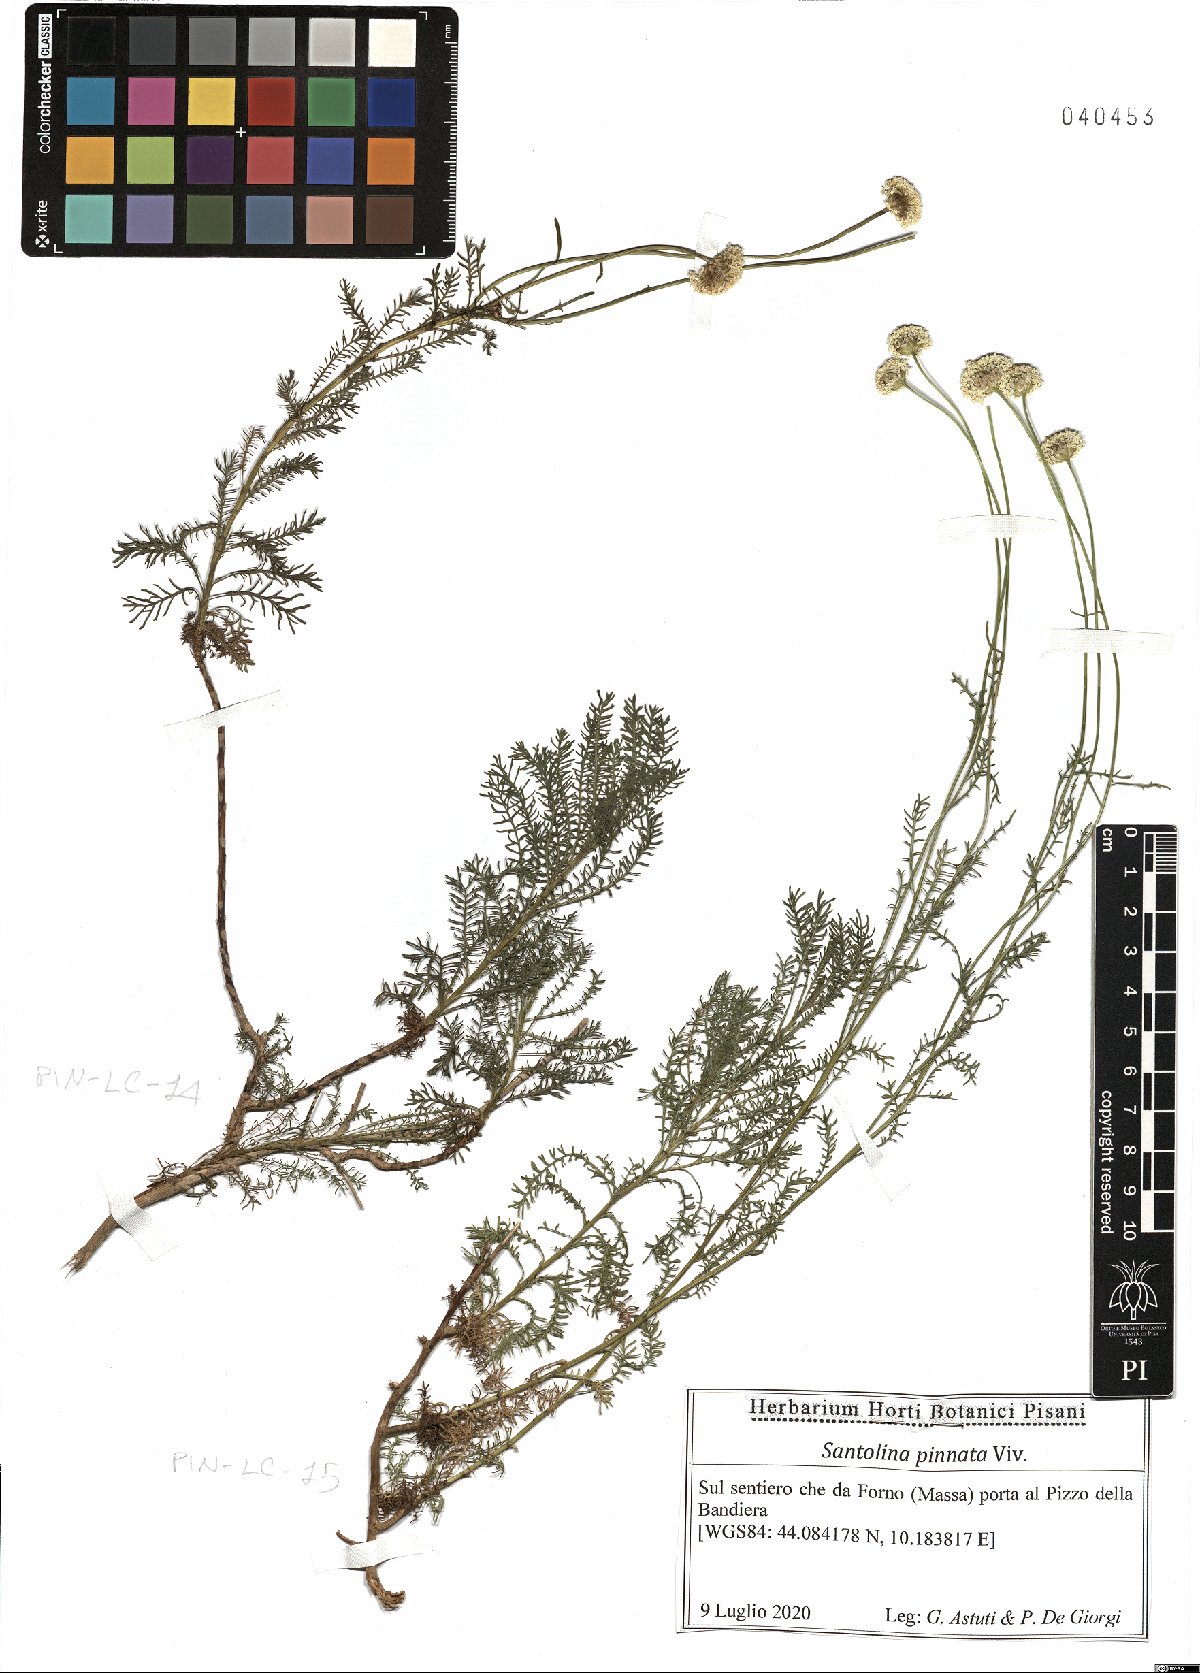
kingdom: Plantae
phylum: Tracheophyta
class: Magnoliopsida
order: Asterales
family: Asteraceae
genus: Santolina
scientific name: Santolina pinnata
